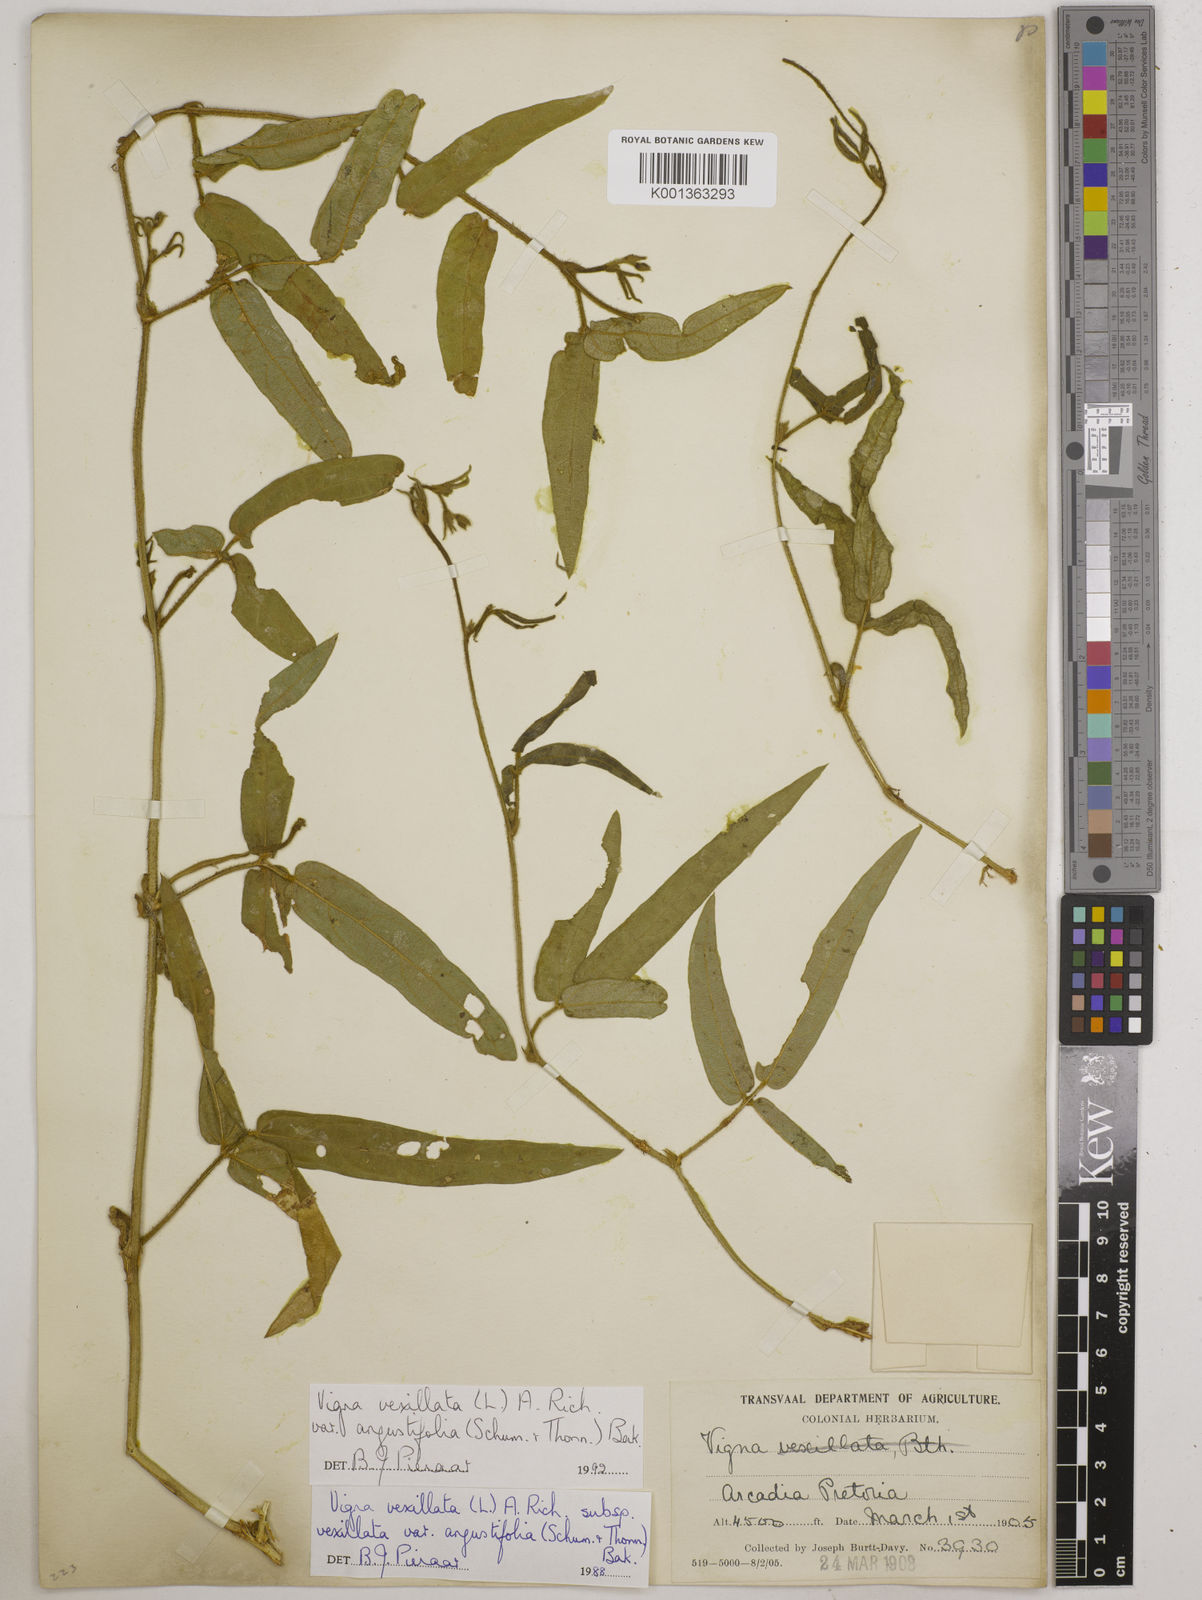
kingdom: Plantae
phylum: Tracheophyta
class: Magnoliopsida
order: Fabales
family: Fabaceae
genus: Vigna
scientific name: Vigna vexillata
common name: Zombi pea
